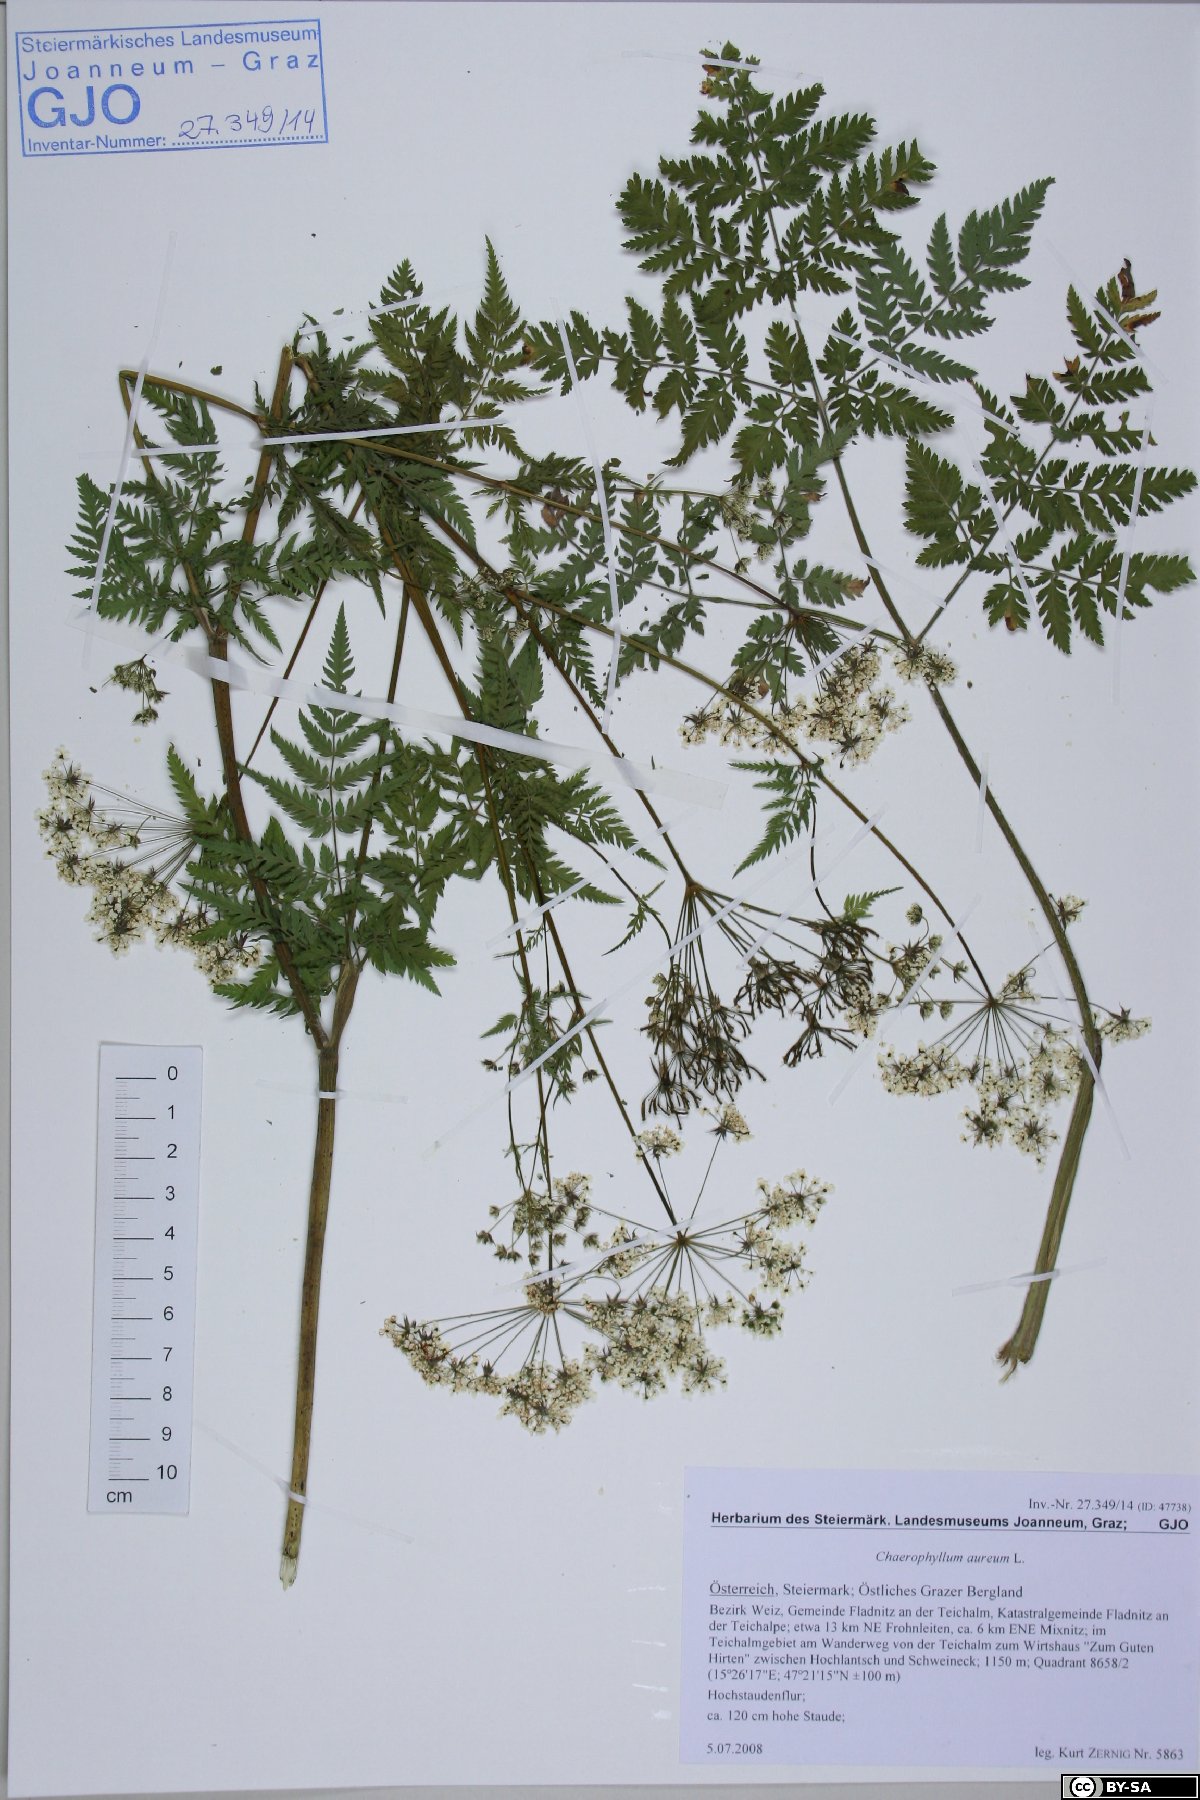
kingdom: Plantae
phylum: Tracheophyta
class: Magnoliopsida
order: Apiales
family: Apiaceae
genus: Chaerophyllum
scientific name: Chaerophyllum aureum
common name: Golden chervil
